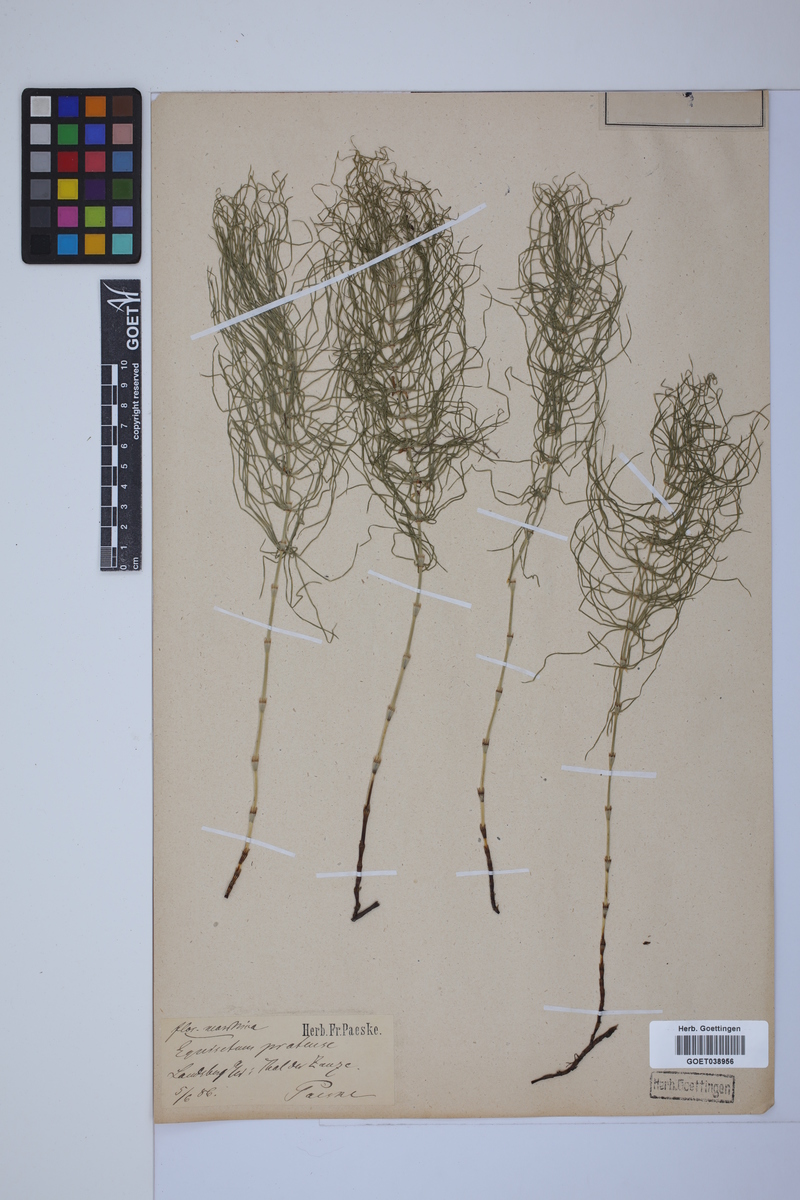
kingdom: Plantae
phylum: Tracheophyta
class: Polypodiopsida
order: Equisetales
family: Equisetaceae
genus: Equisetum
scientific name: Equisetum pratense
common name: Meadow horsetail
